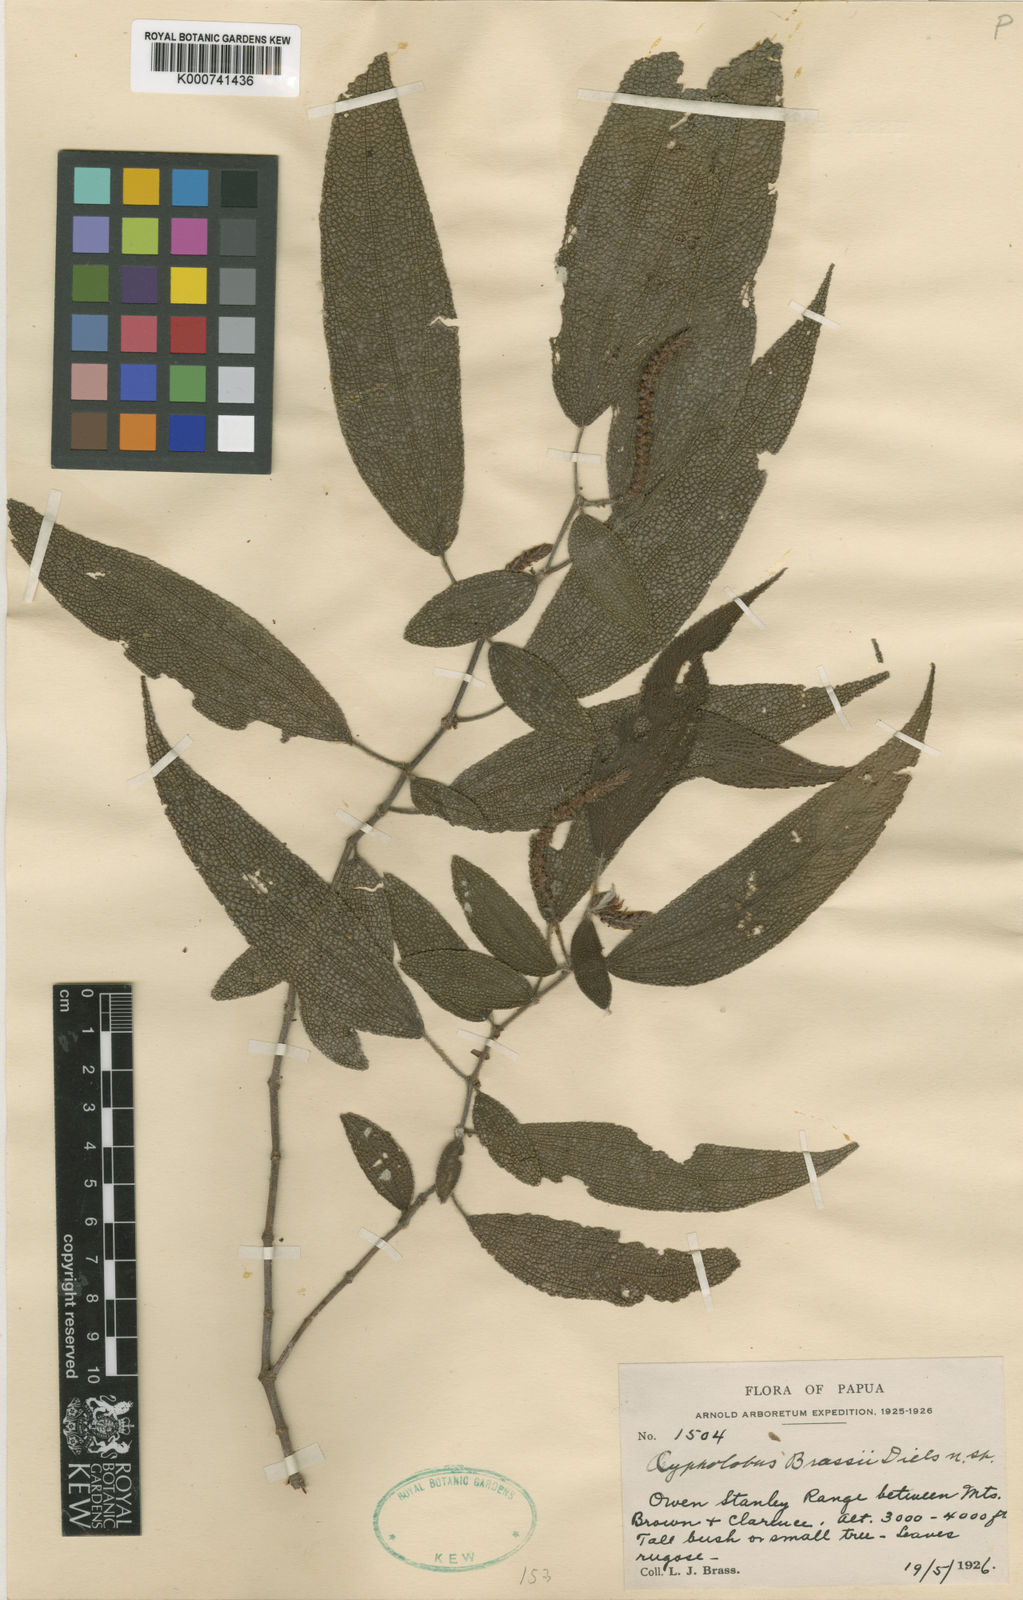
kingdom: Plantae
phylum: Tracheophyta
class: Magnoliopsida
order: Rosales
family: Urticaceae
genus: Cypholophus
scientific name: Cypholophus decipiens
